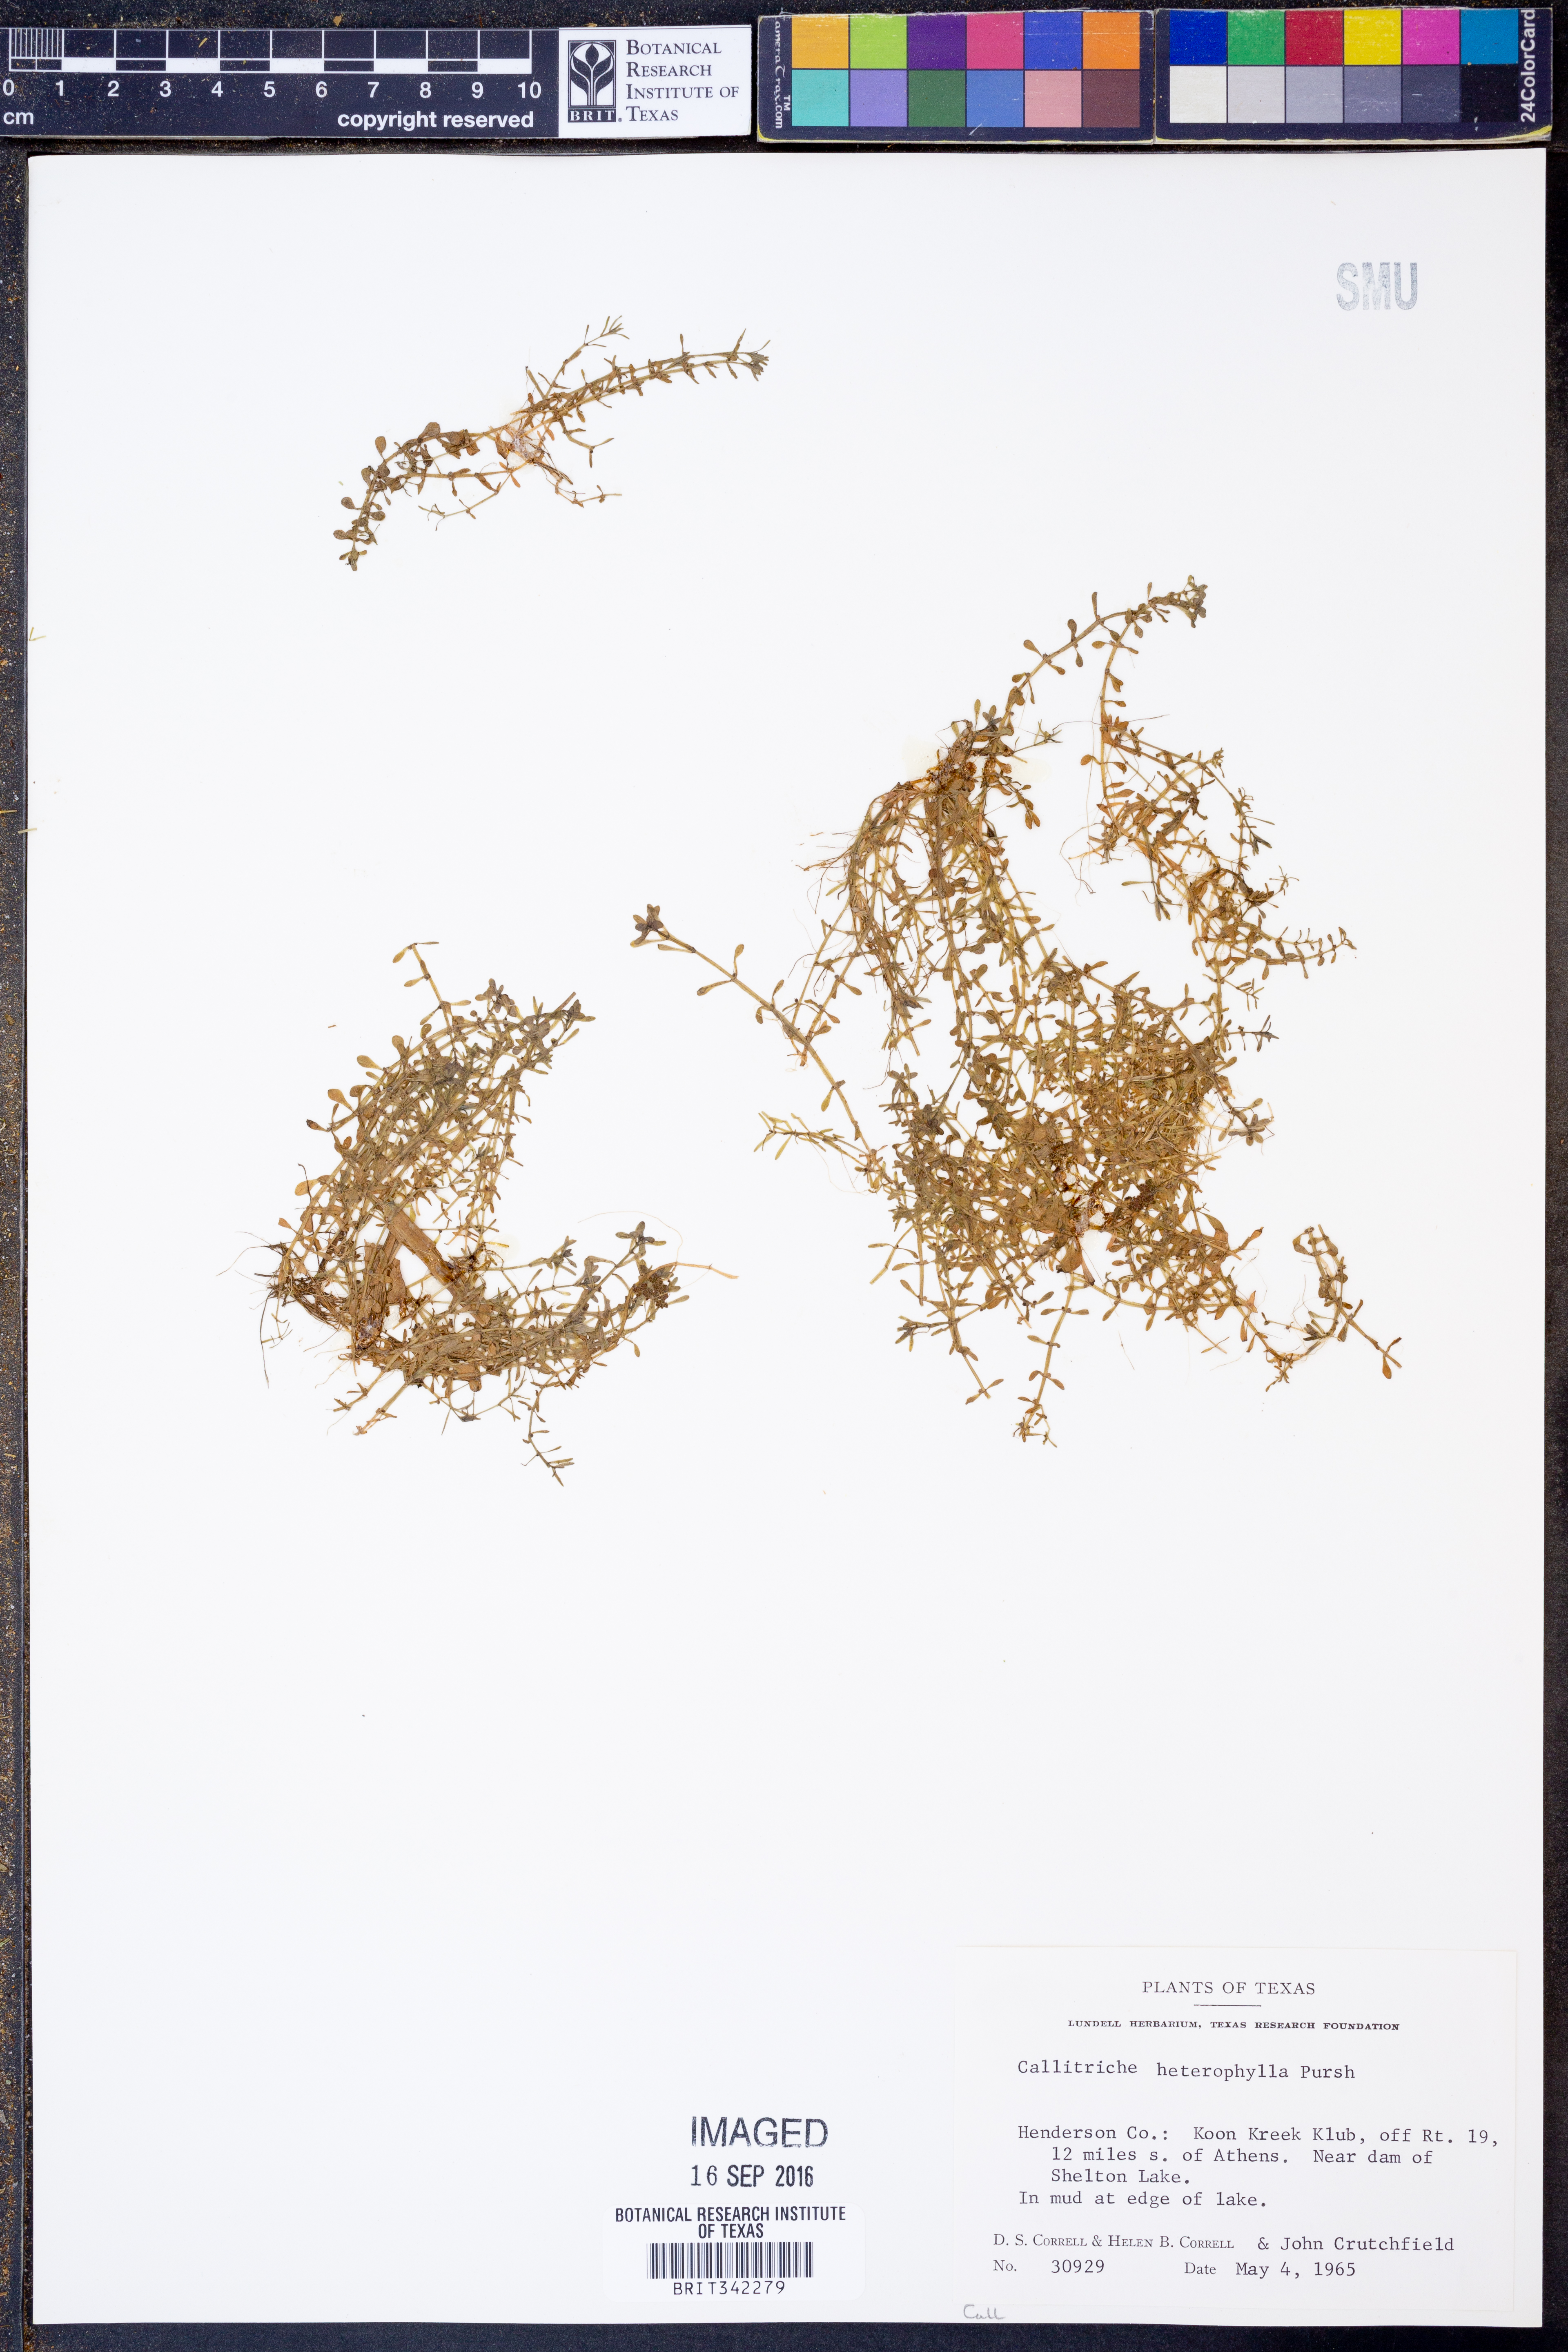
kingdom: Plantae
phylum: Tracheophyta
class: Magnoliopsida
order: Lamiales
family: Plantaginaceae
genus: Callitriche
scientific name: Callitriche heterophylla
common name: Two-headed water-starwort
